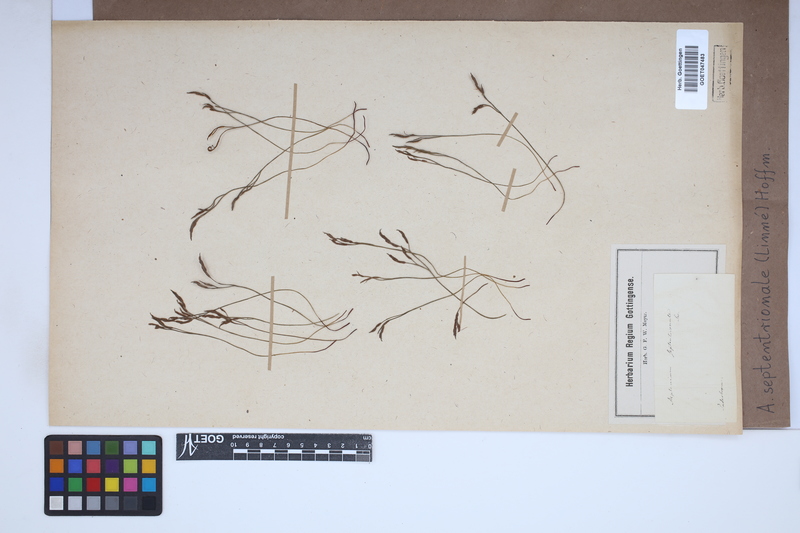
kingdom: Plantae
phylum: Tracheophyta
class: Polypodiopsida
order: Polypodiales
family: Aspleniaceae
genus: Asplenium
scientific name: Asplenium septentrionale
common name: Forked spleenwort
